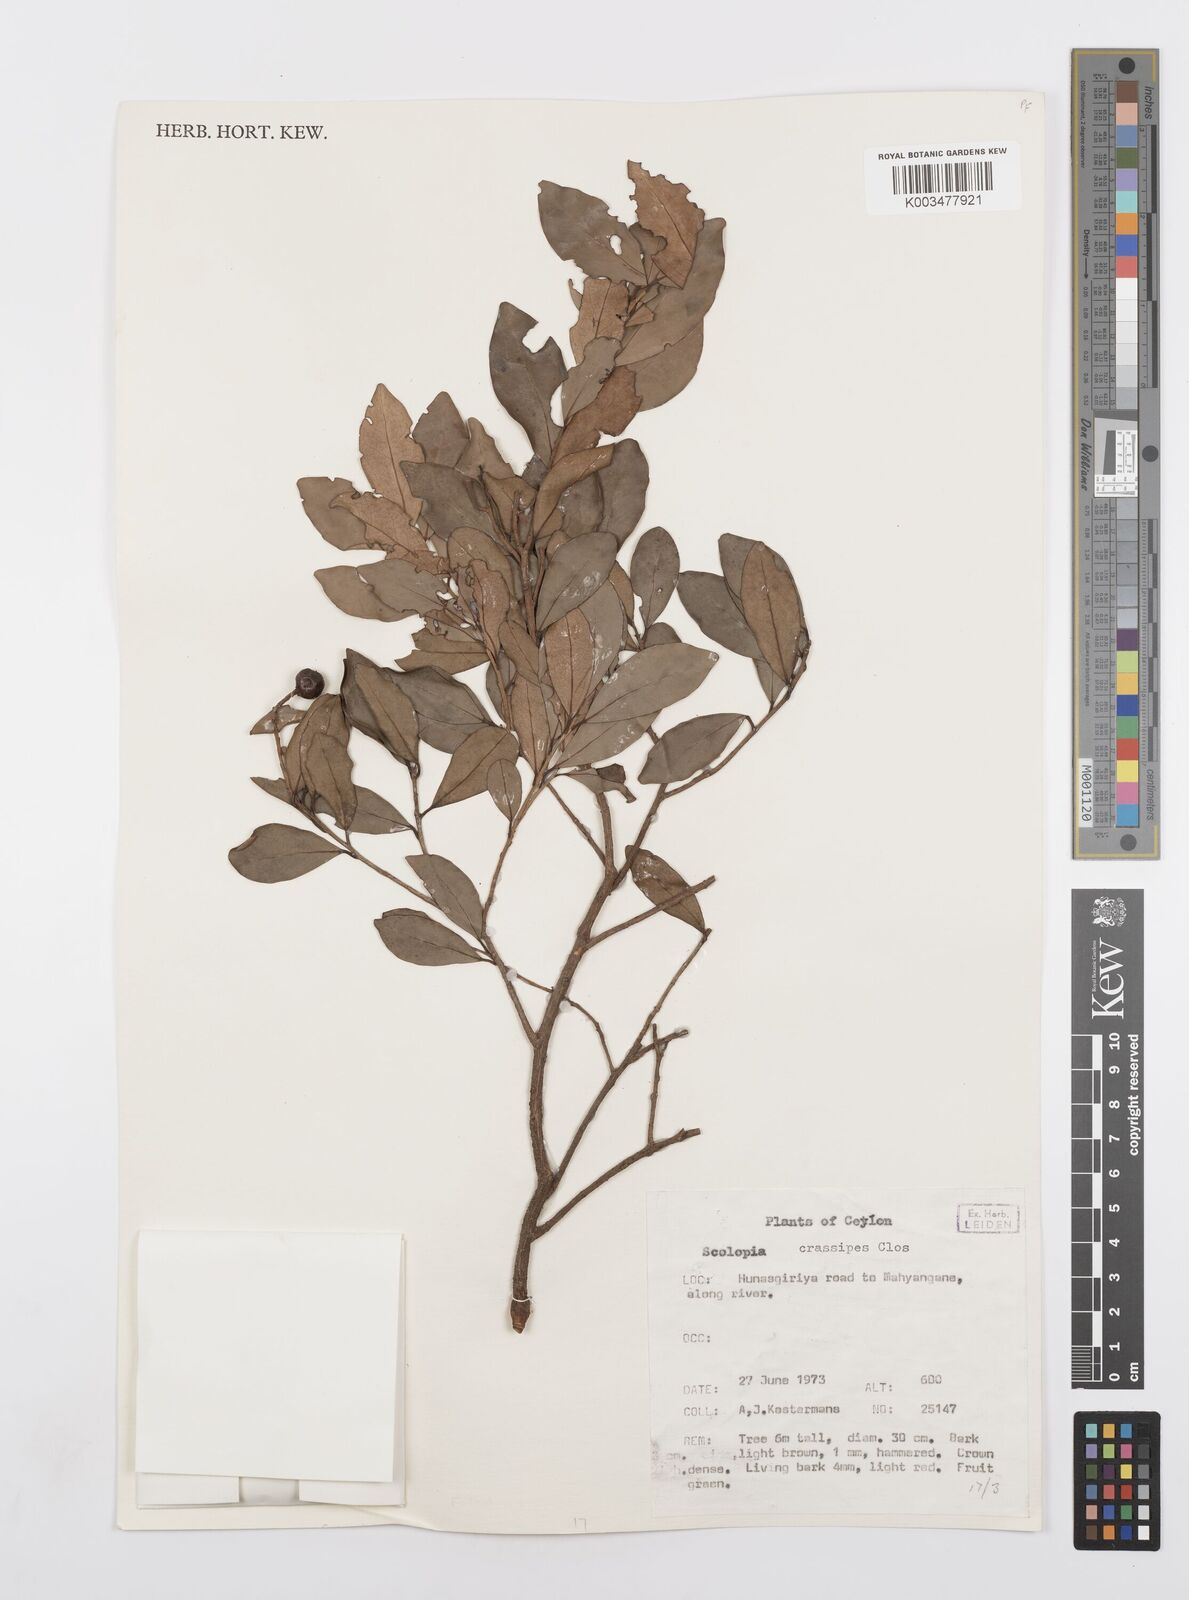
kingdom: Plantae
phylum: Tracheophyta
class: Magnoliopsida
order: Malpighiales
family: Salicaceae
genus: Scolopia
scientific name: Scolopia crassipes
